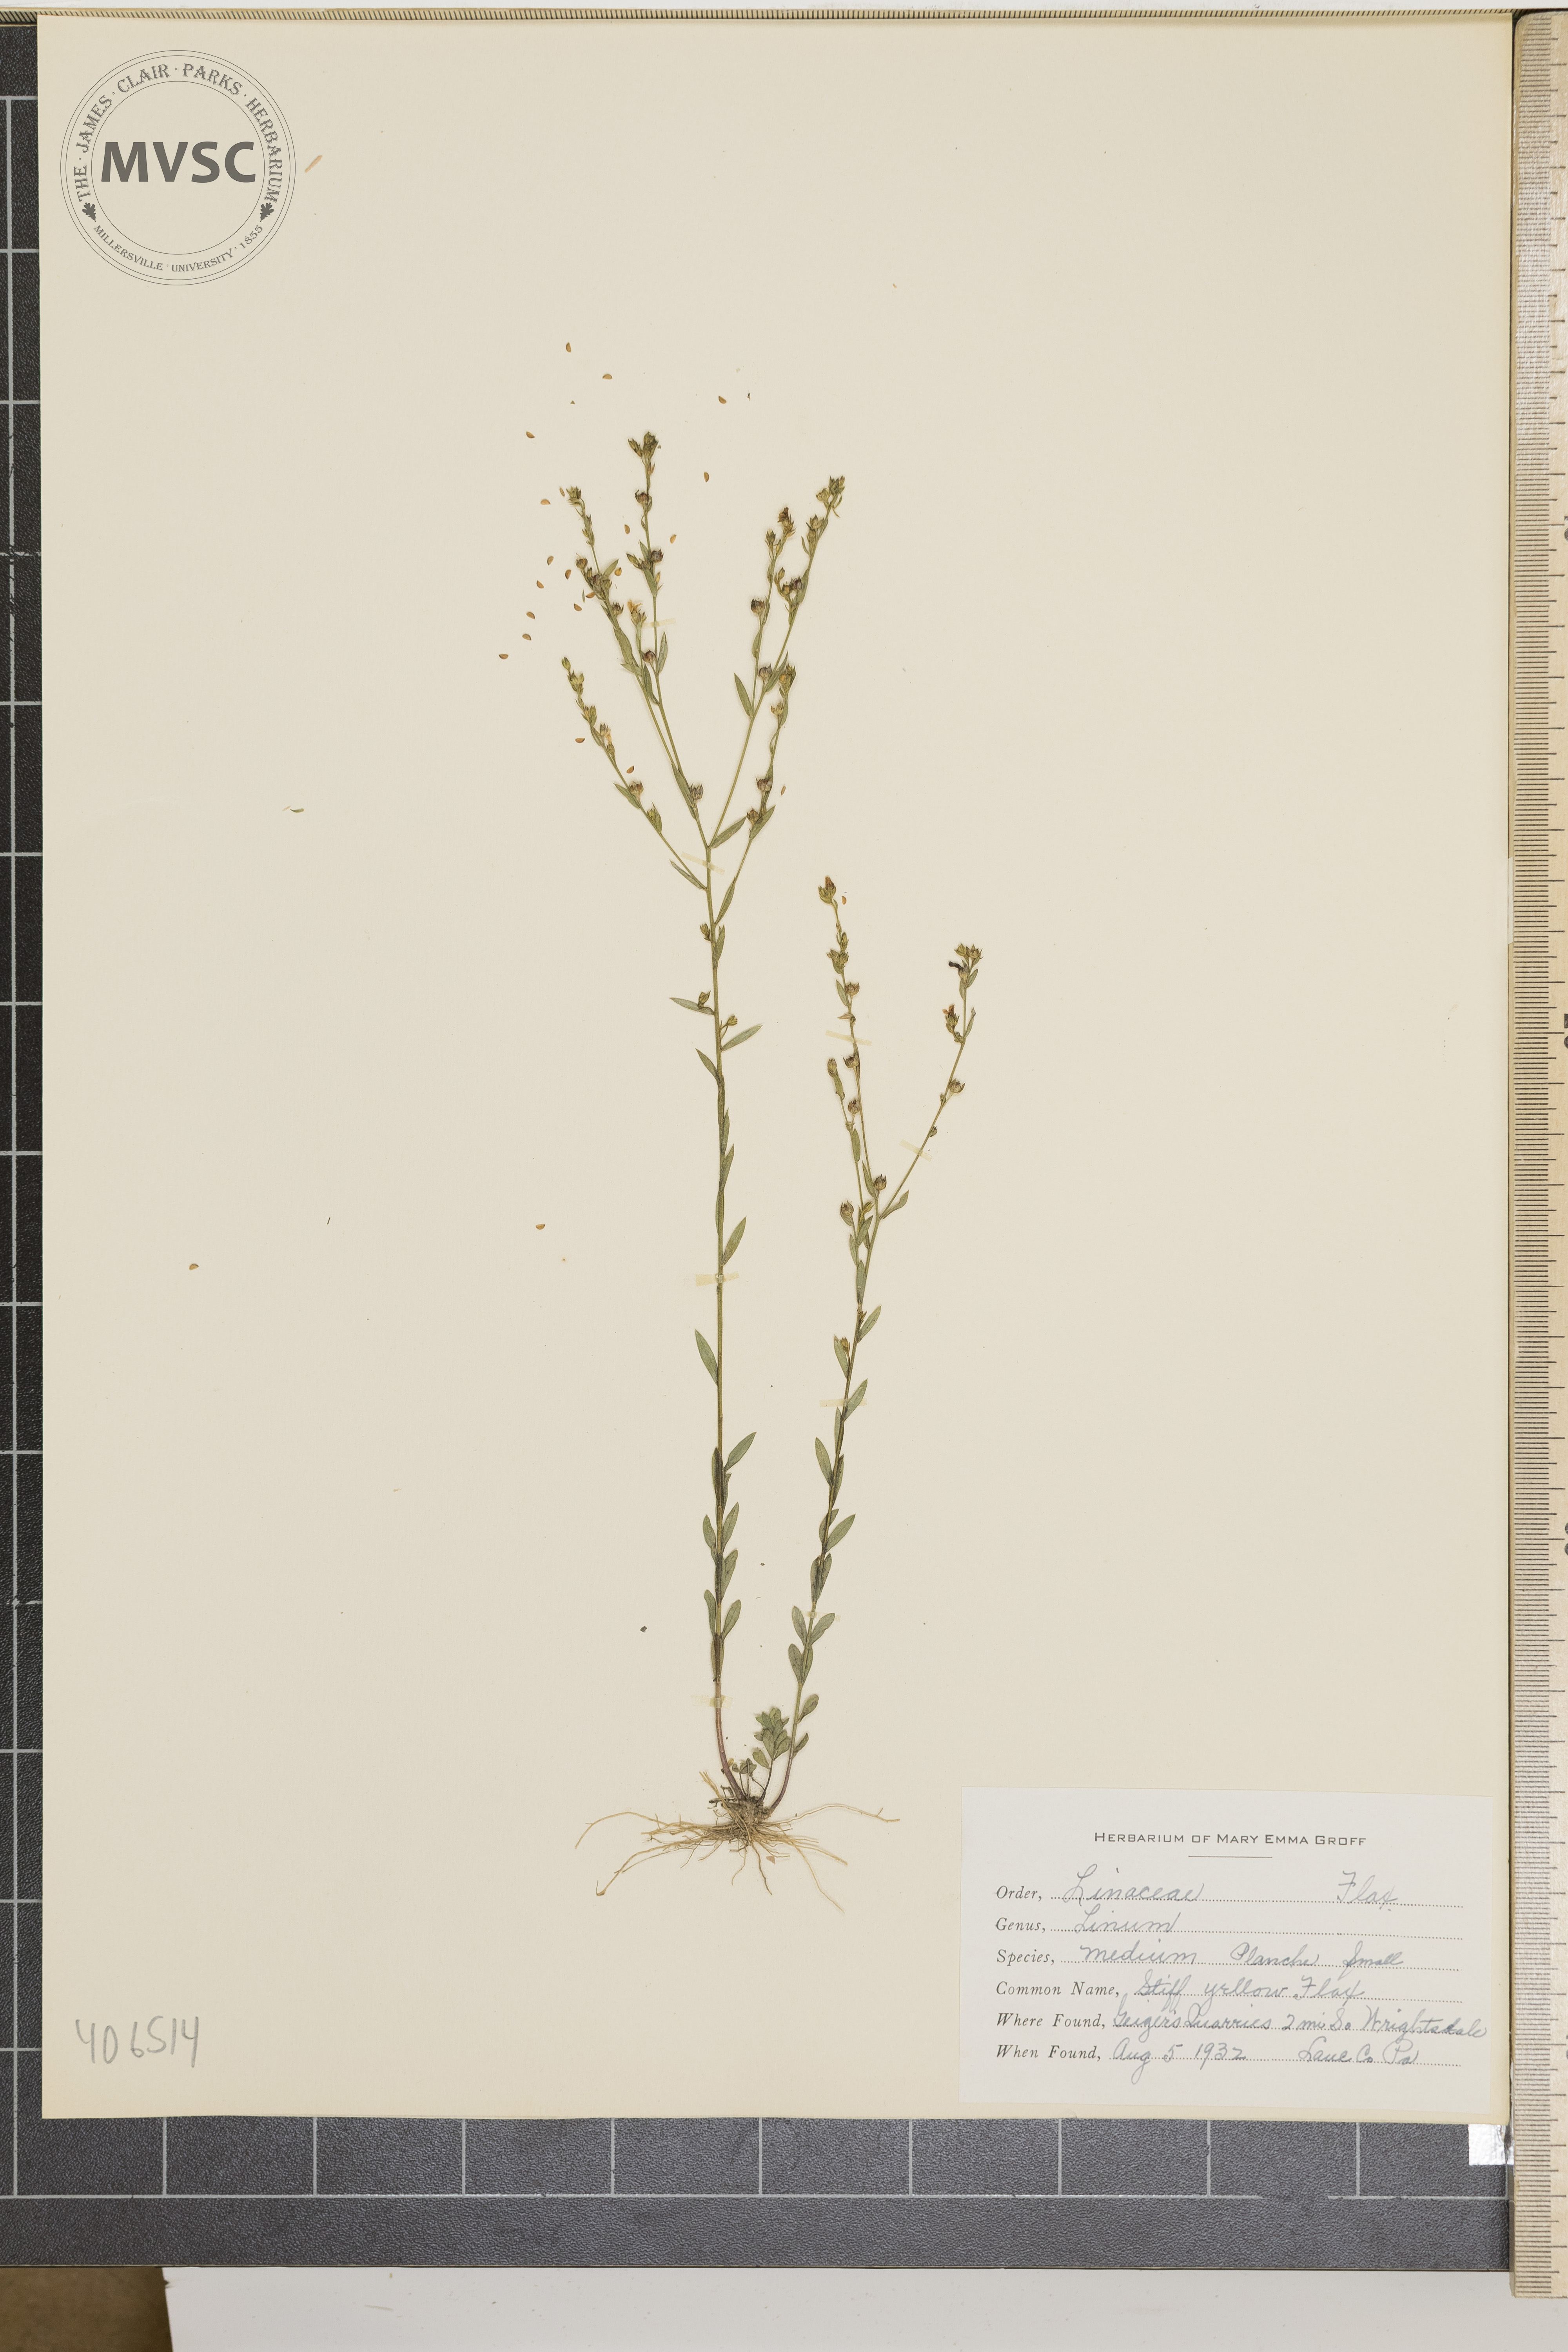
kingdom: Plantae
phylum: Tracheophyta
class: Magnoliopsida
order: Malpighiales
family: Linaceae
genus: Linum
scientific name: Linum medium
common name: Stiff Yellow Flax
